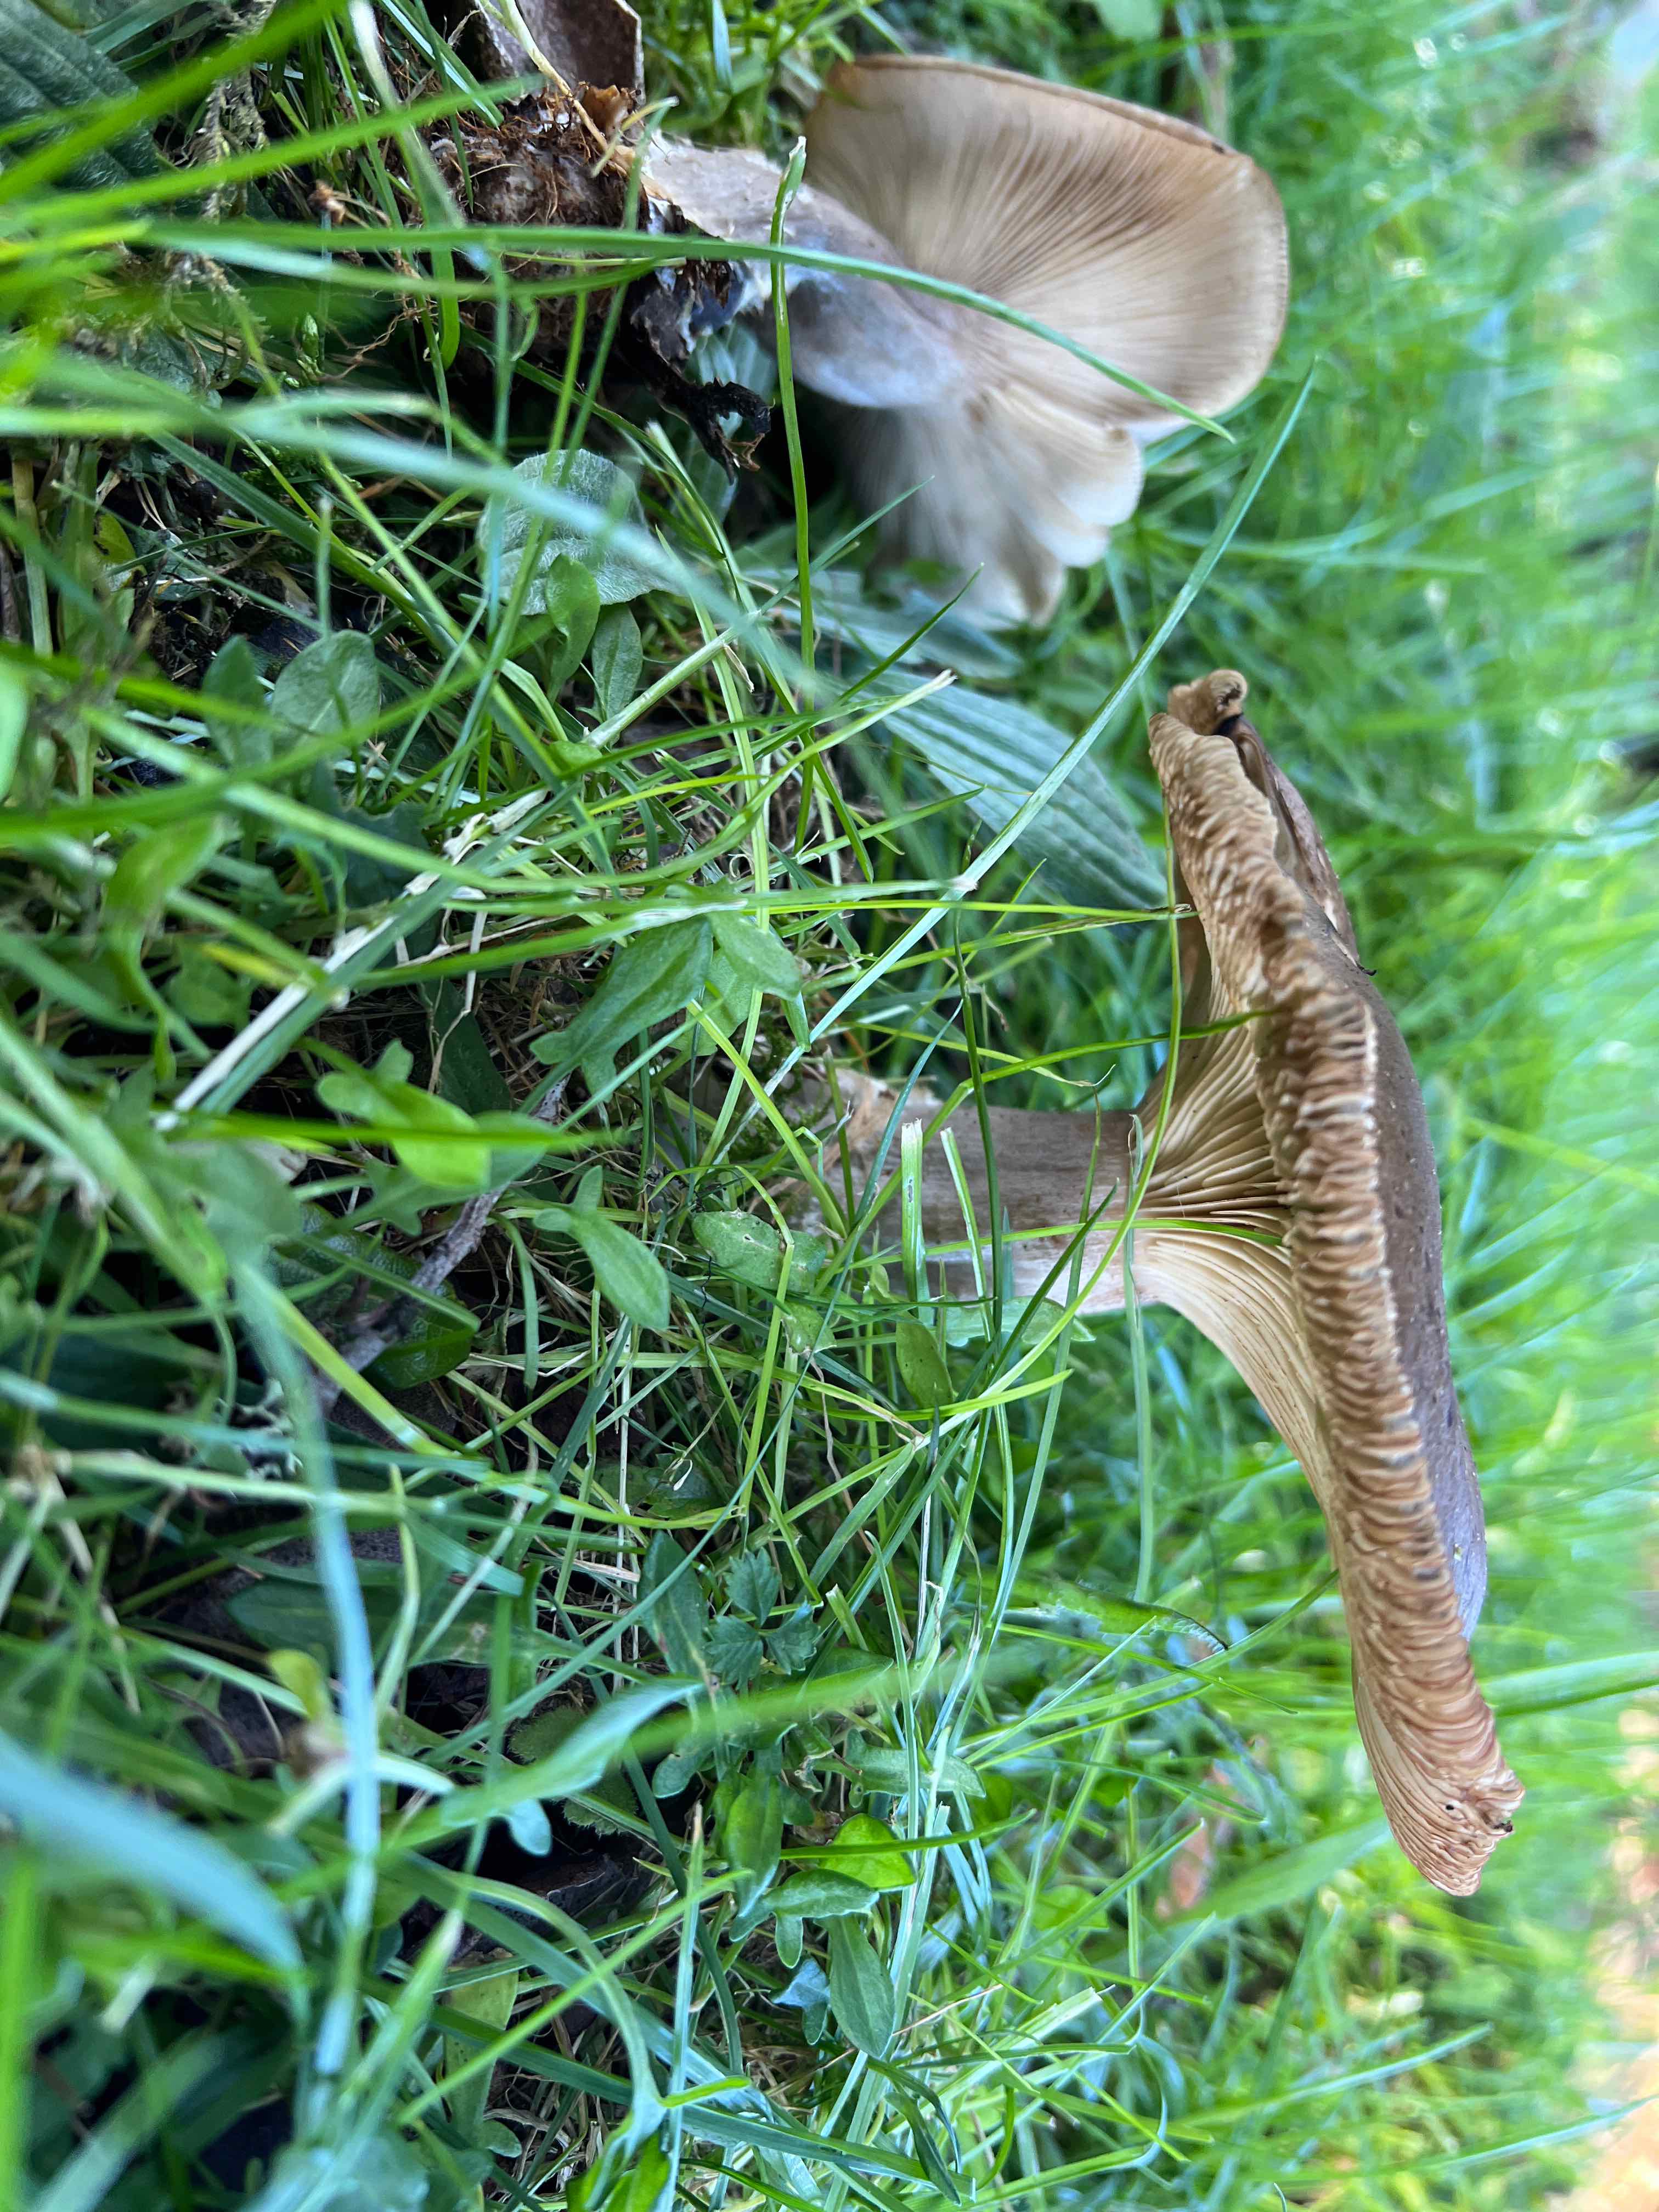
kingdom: Fungi
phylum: Basidiomycota
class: Agaricomycetes
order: Agaricales
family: Tricholomataceae
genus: Melanoleuca
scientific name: Melanoleuca
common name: munkehat
